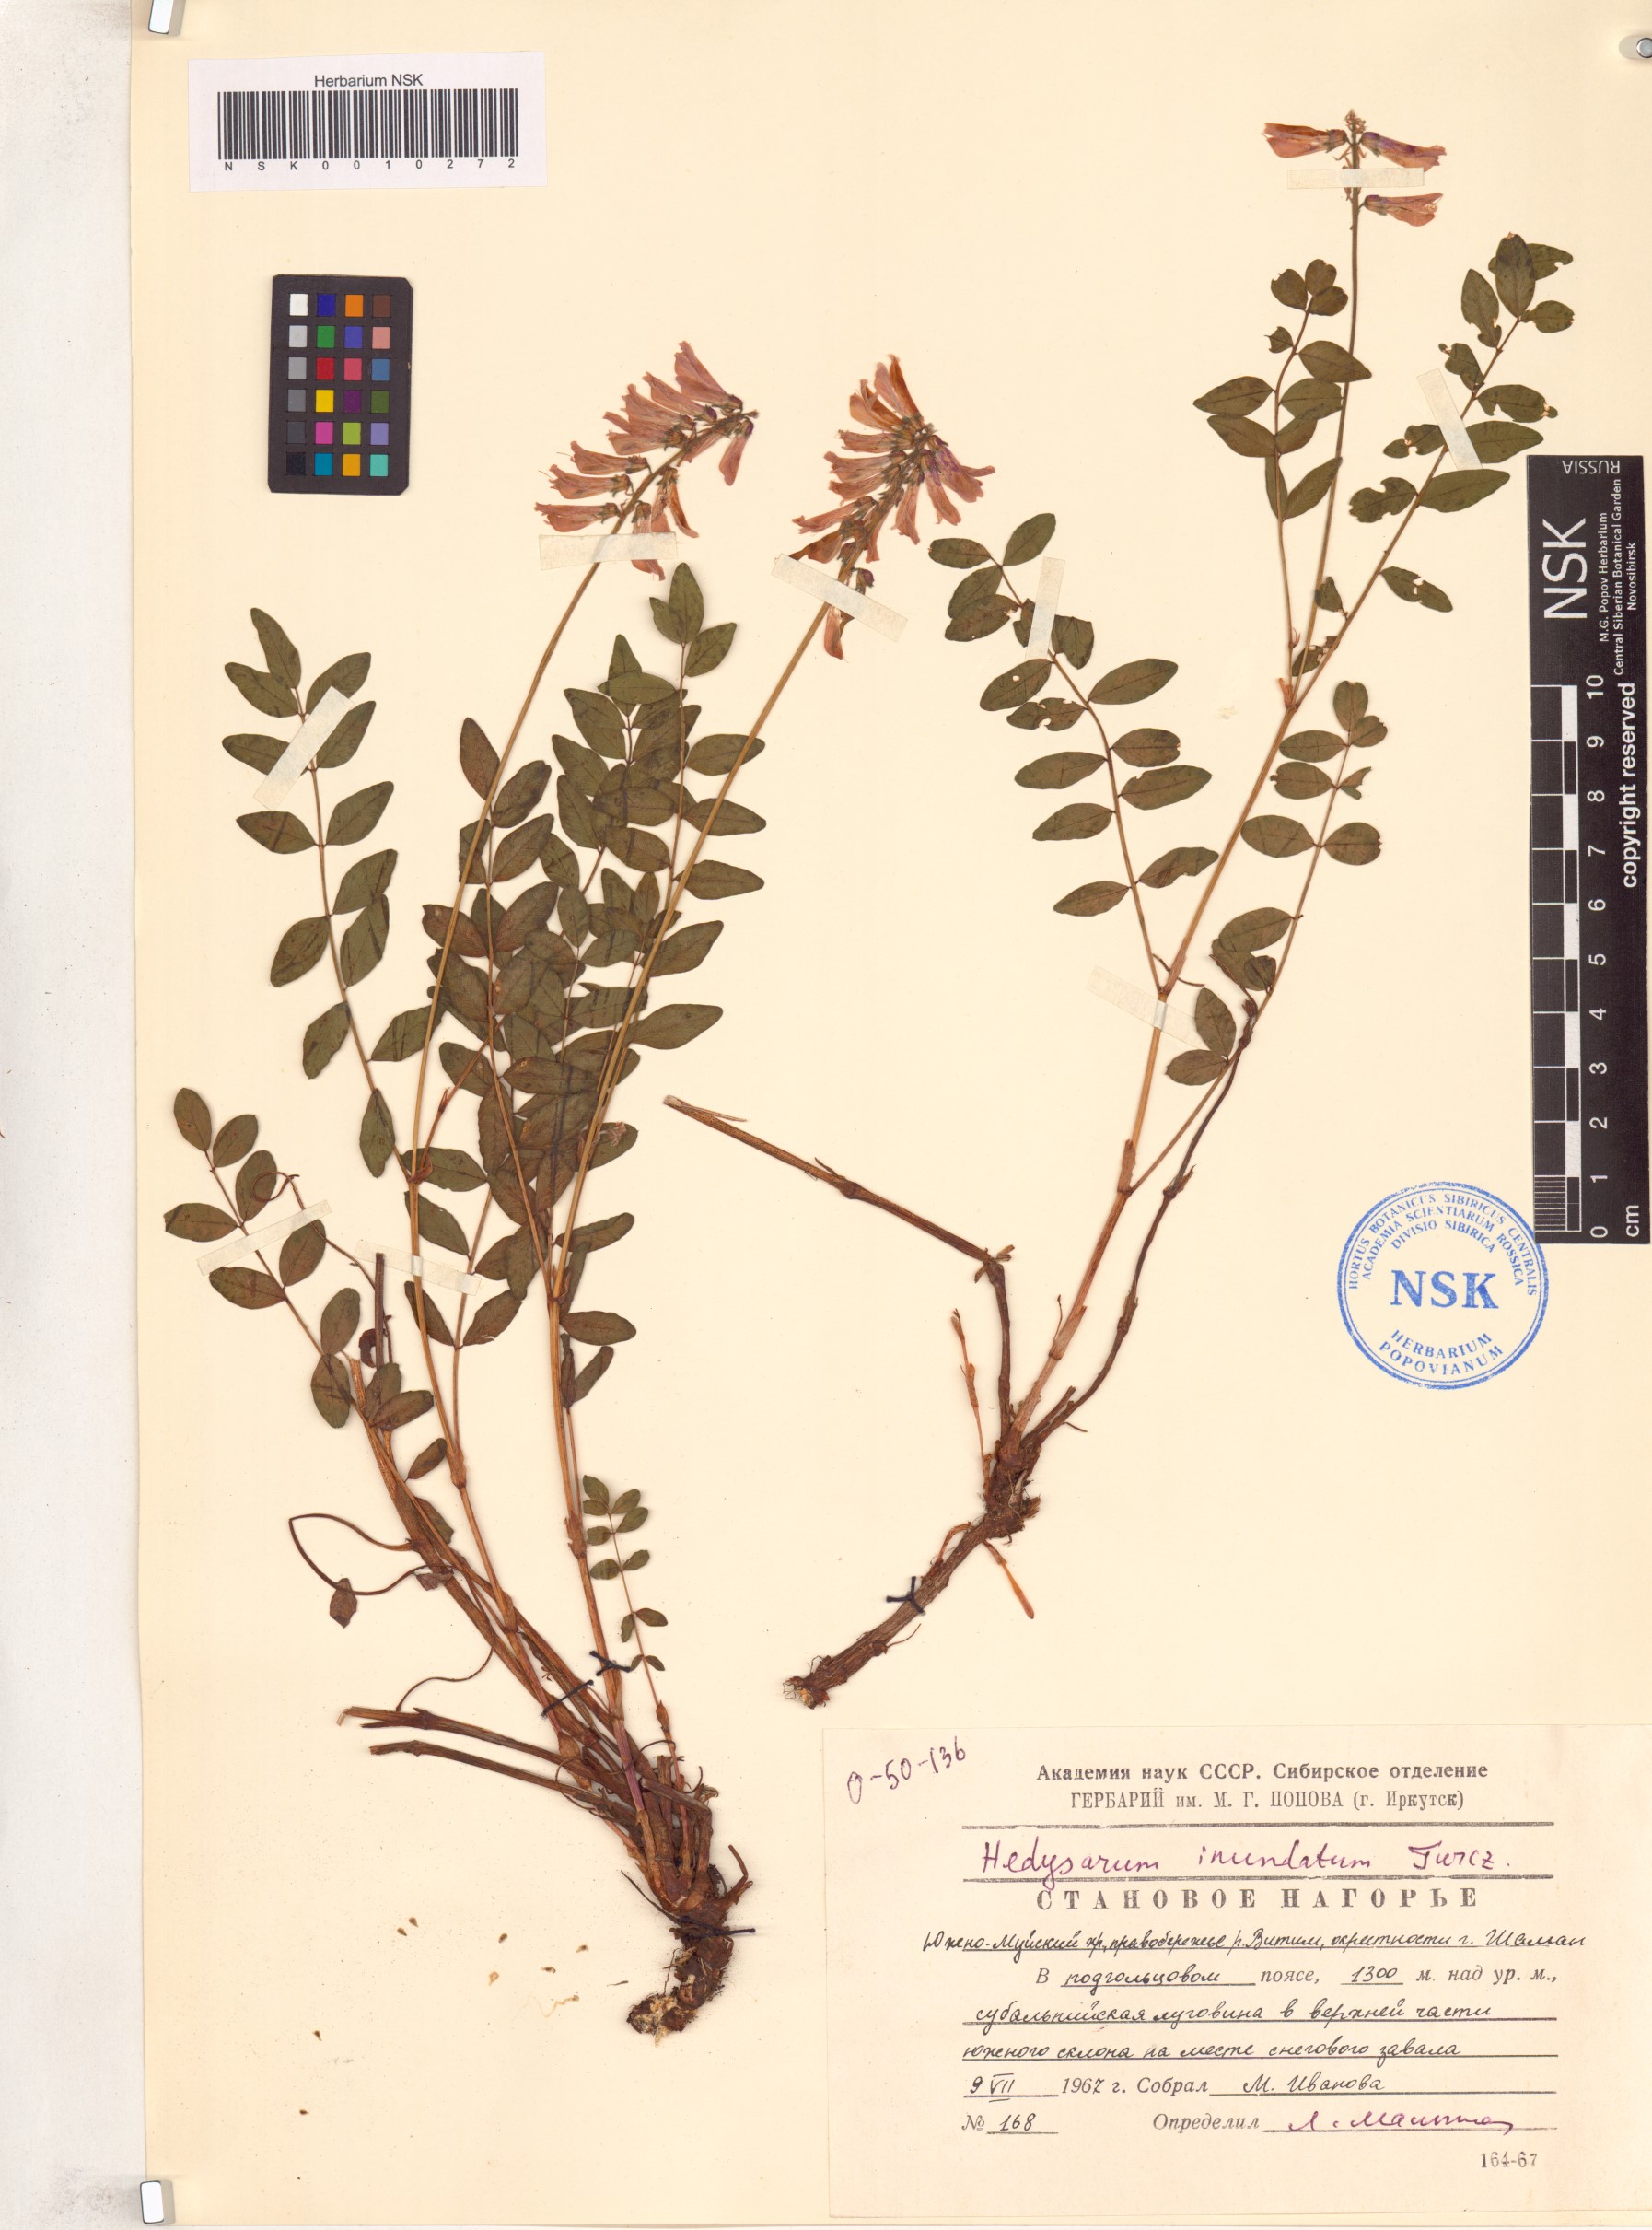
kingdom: Plantae
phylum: Tracheophyta
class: Magnoliopsida
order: Fabales
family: Fabaceae
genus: Hedysarum
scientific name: Hedysarum inundatum
